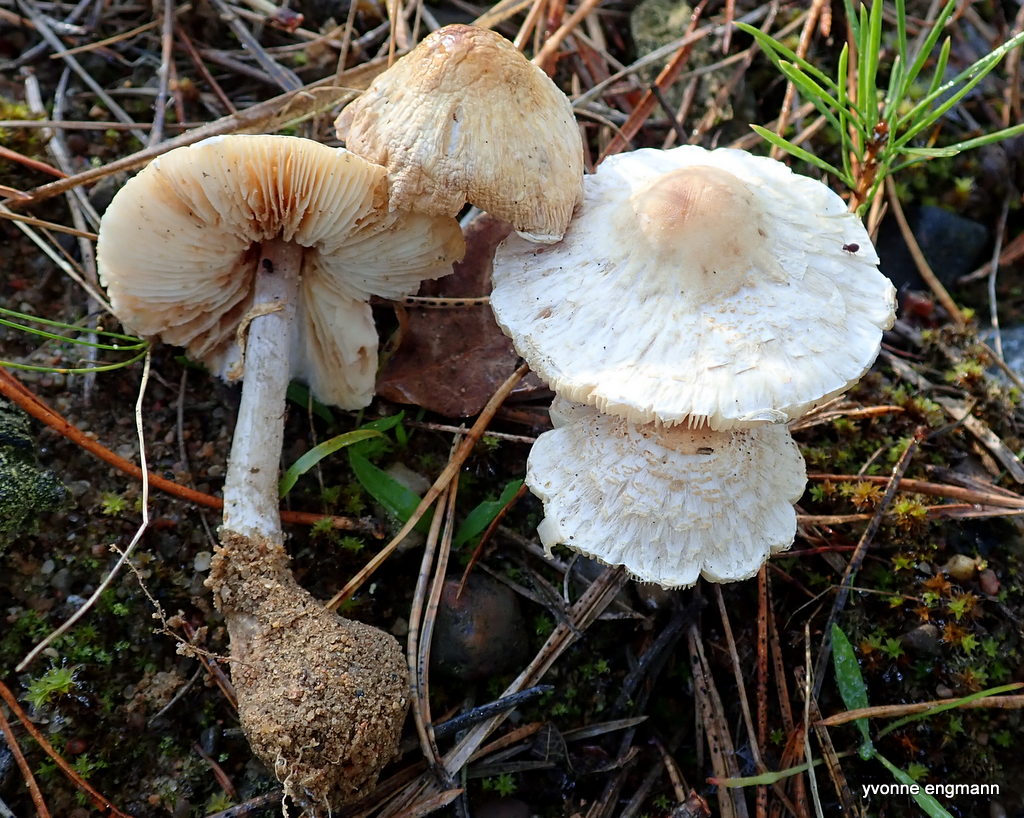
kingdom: Fungi
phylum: Basidiomycota
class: Agaricomycetes
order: Agaricales
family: Agaricaceae
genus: Lepiota
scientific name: Lepiota cristata
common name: stinkende parasolhat
